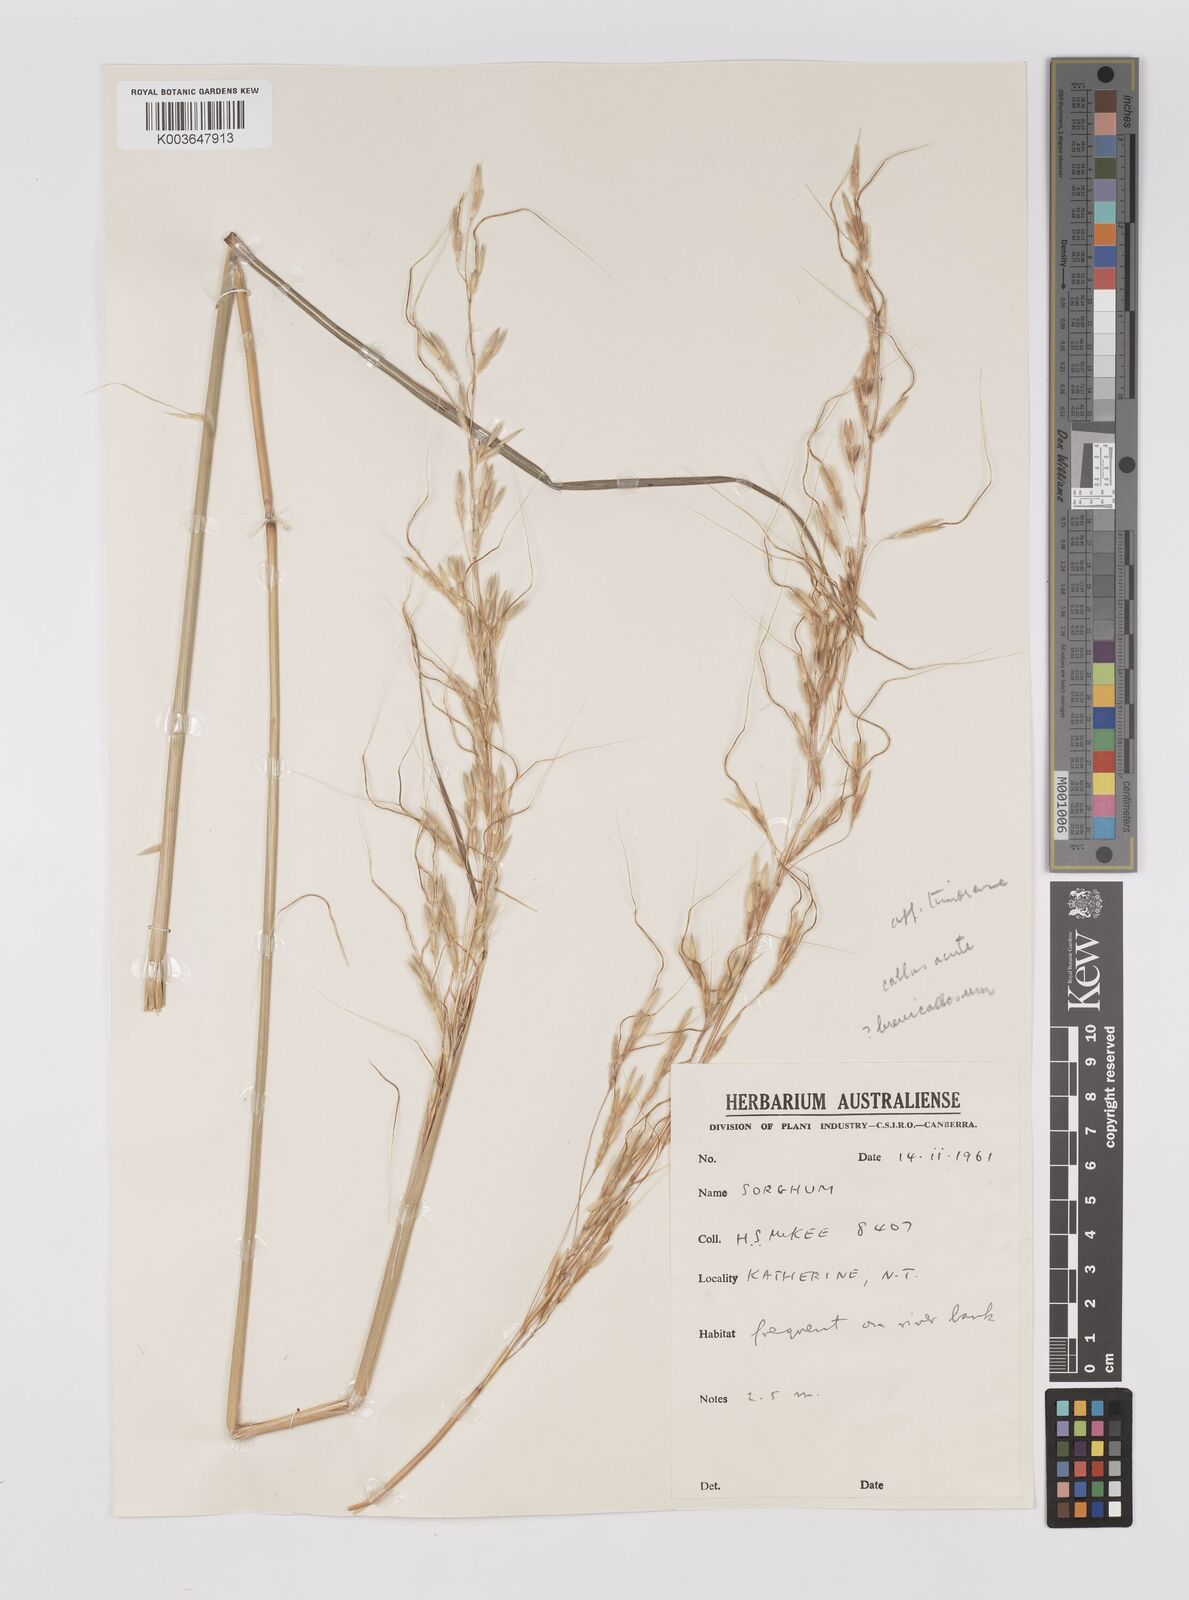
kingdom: Plantae
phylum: Tracheophyta
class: Liliopsida
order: Poales
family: Poaceae
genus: Sarga
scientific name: Sarga timorensis
